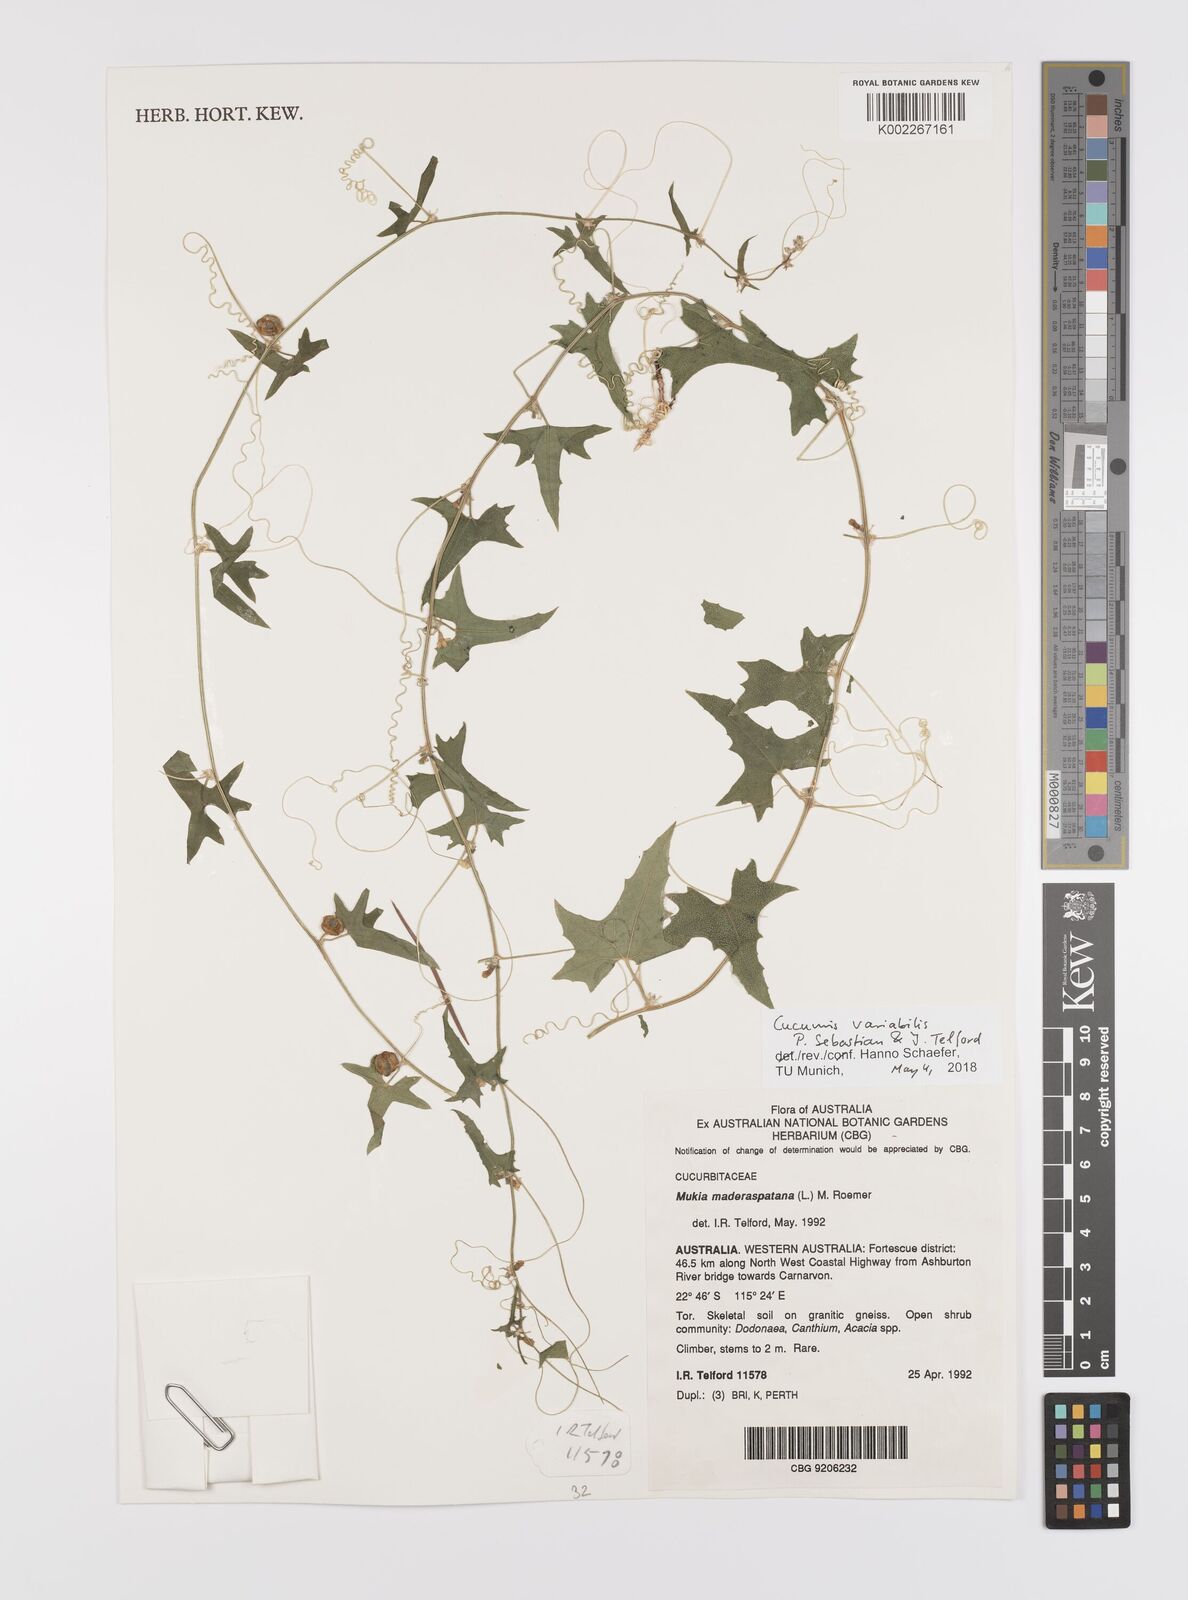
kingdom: Plantae
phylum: Tracheophyta
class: Magnoliopsida
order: Cucurbitales
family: Cucurbitaceae
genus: Cucumis
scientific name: Cucumis maderaspatanus
